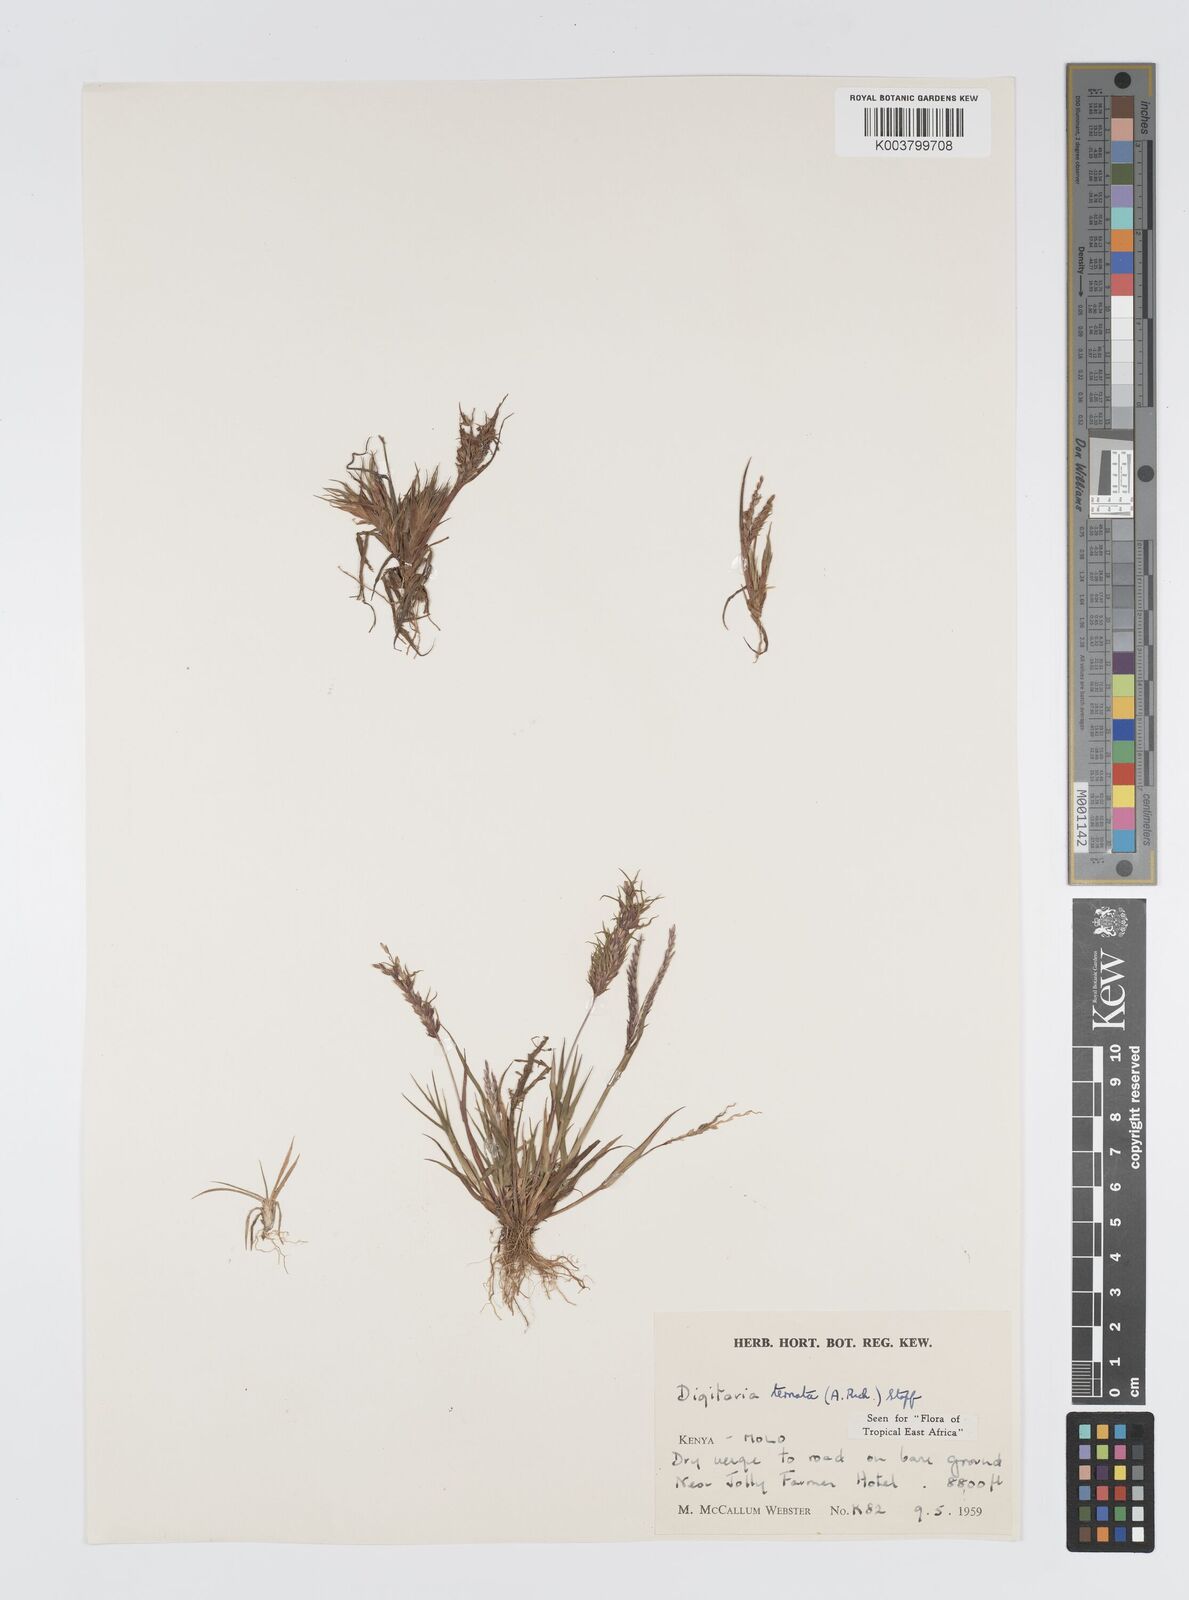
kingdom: Plantae
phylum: Tracheophyta
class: Liliopsida
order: Poales
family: Poaceae
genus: Digitaria
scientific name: Digitaria ternata
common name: Blackseed crabgrass
